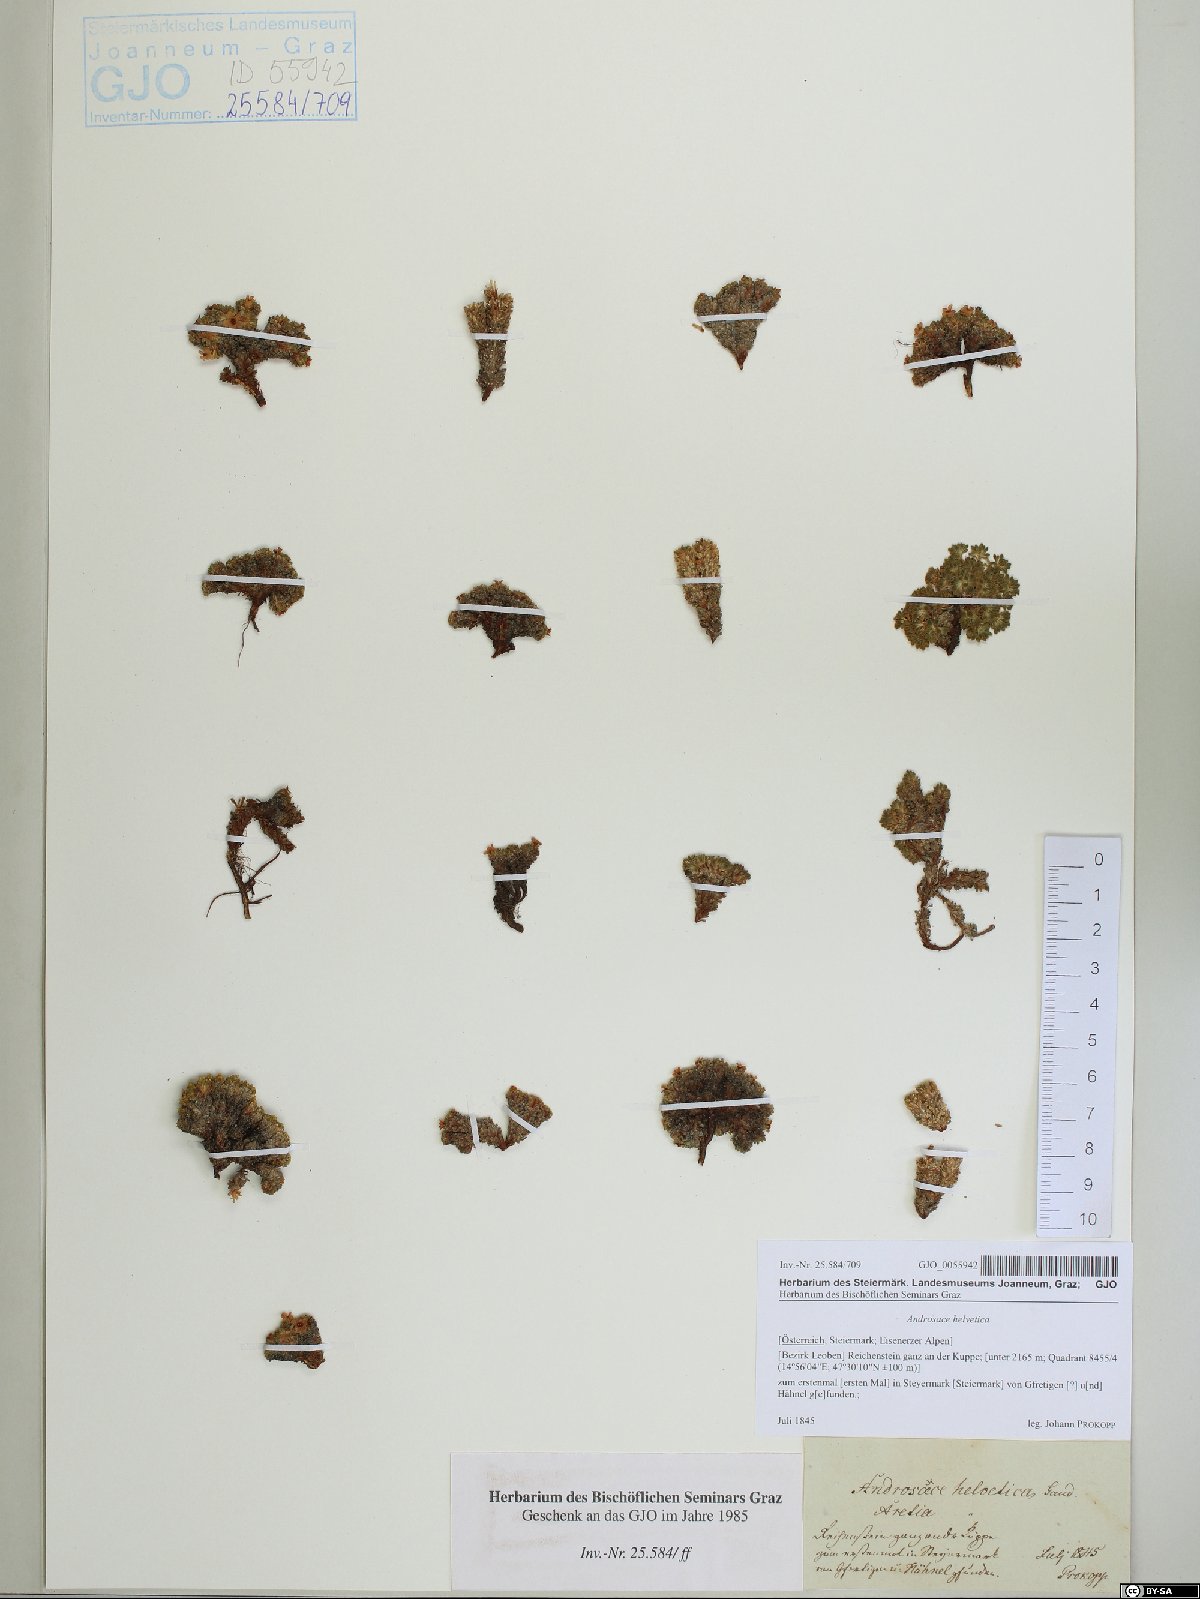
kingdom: Plantae
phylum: Tracheophyta
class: Magnoliopsida
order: Ericales
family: Primulaceae
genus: Androsace
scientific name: Androsace helvetica
